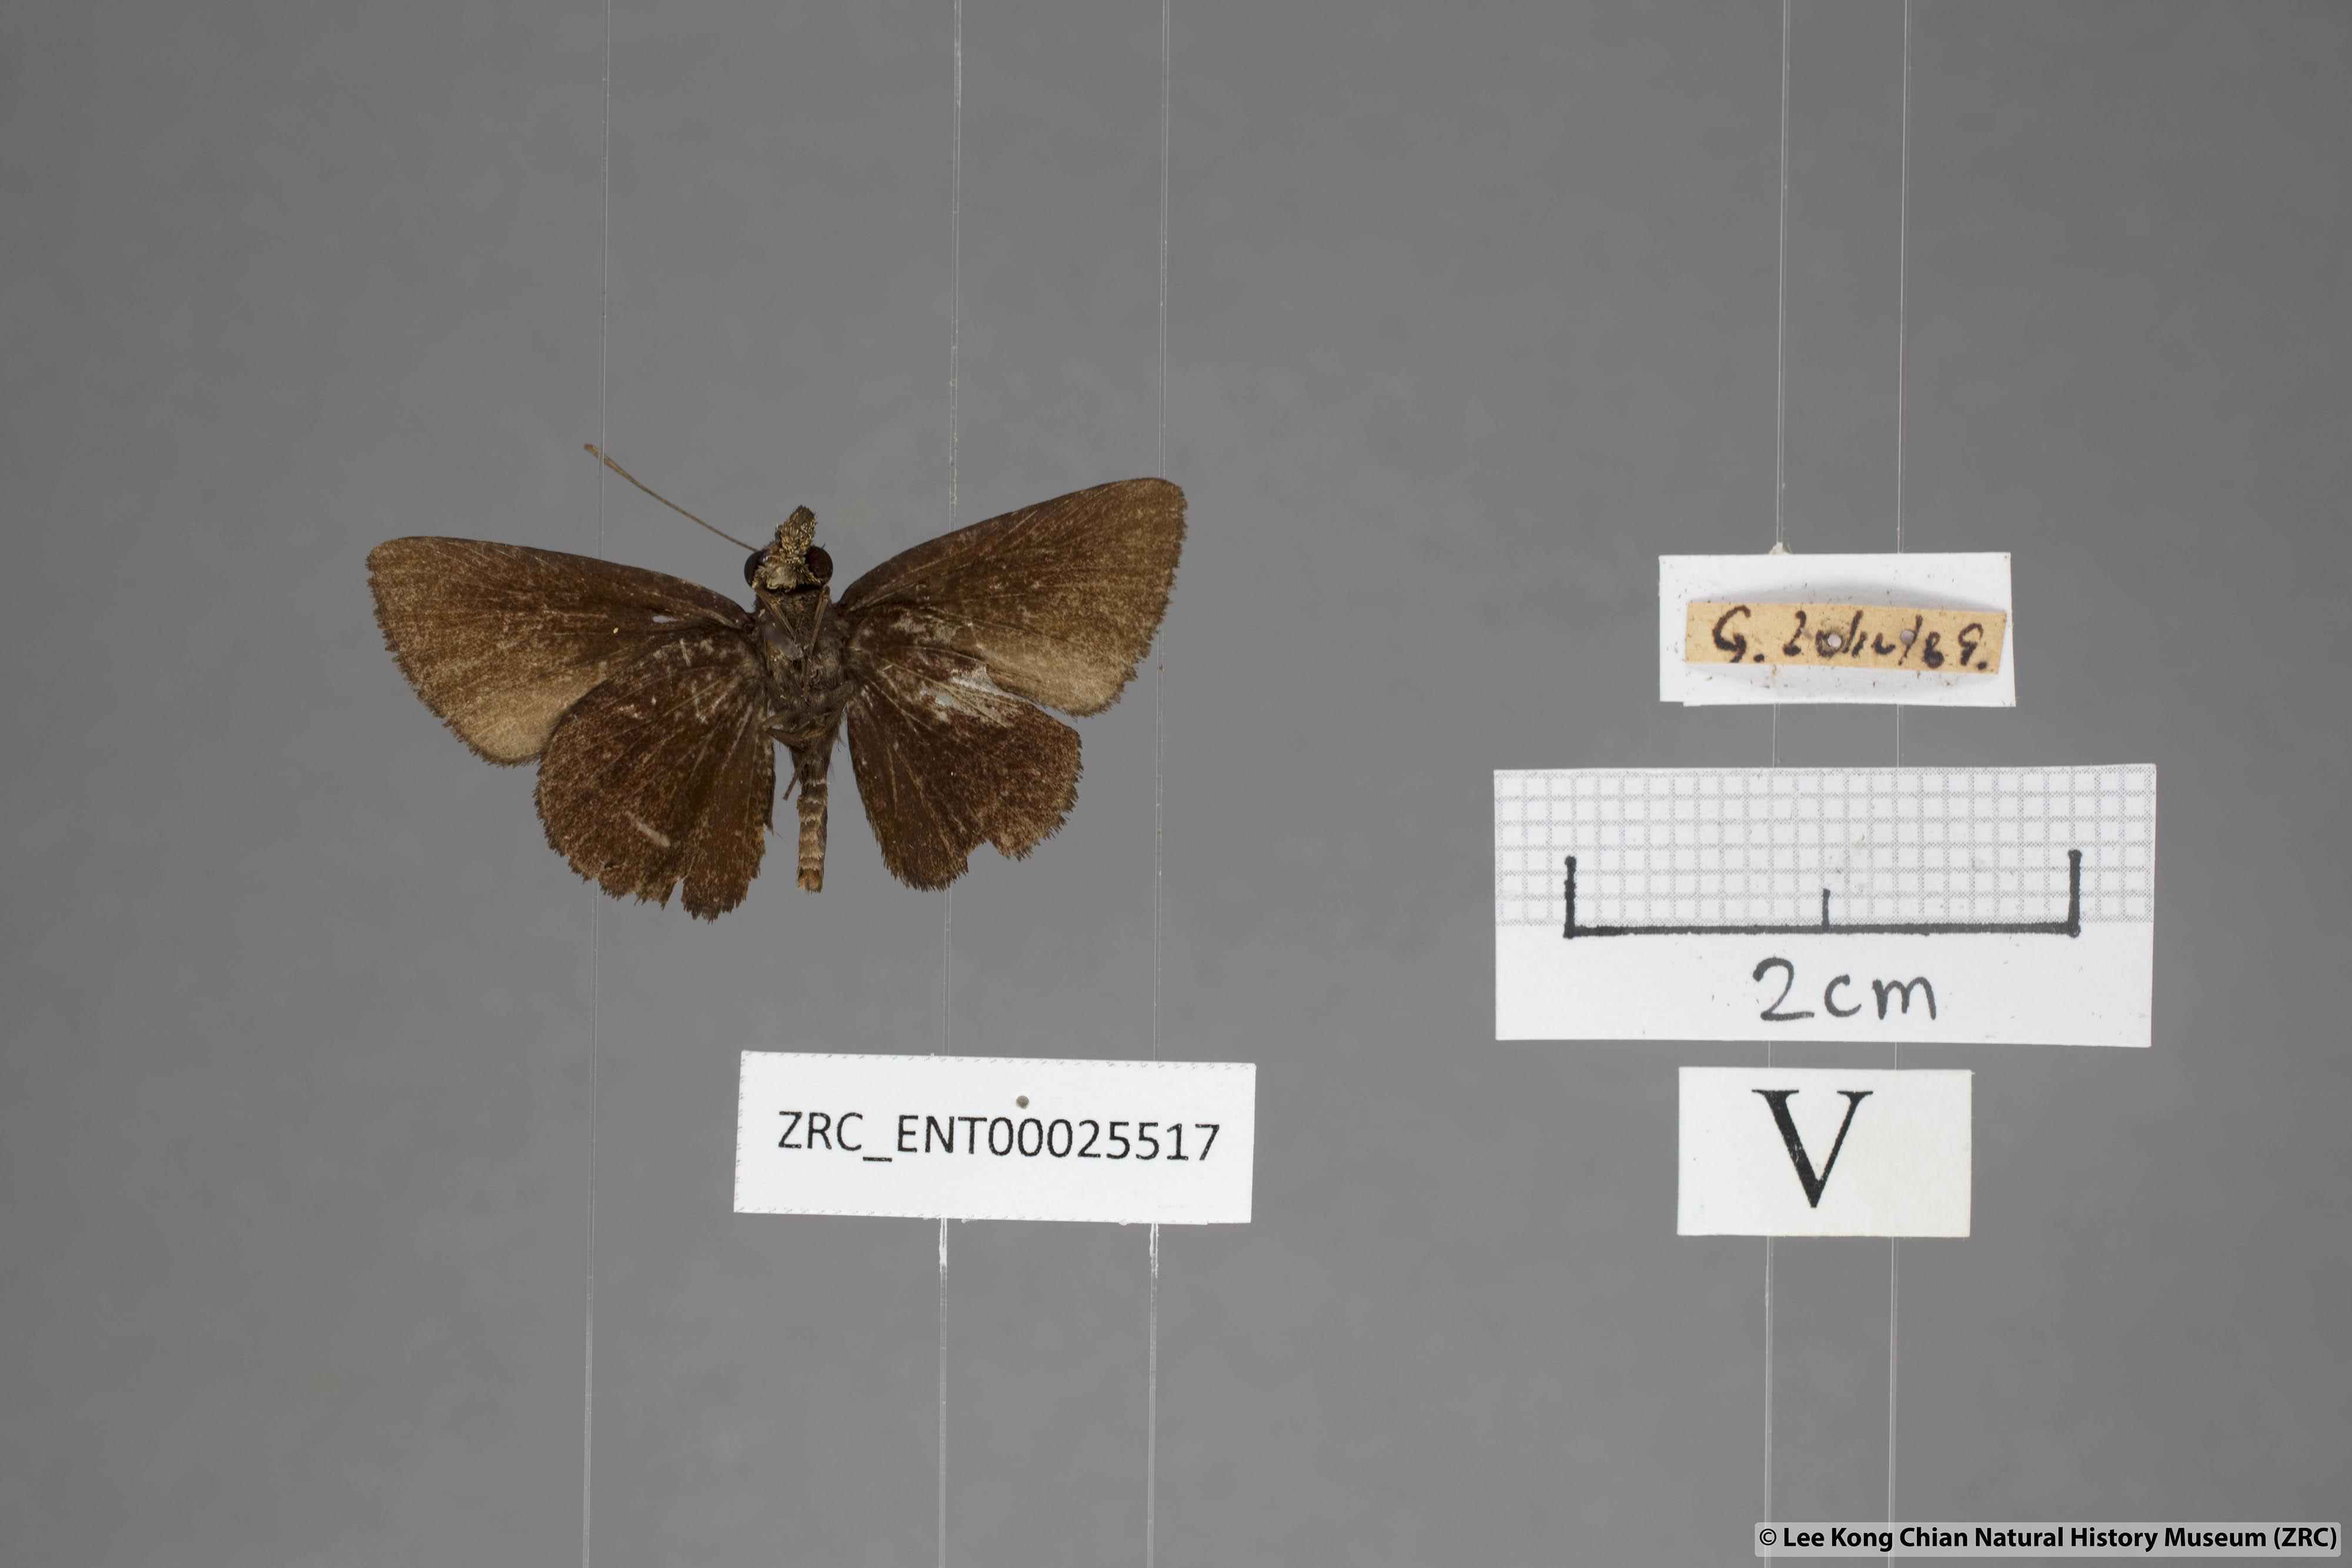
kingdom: Animalia
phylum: Arthropoda
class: Insecta
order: Lepidoptera
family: Hesperiidae
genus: Psolos
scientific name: Psolos fuligo
